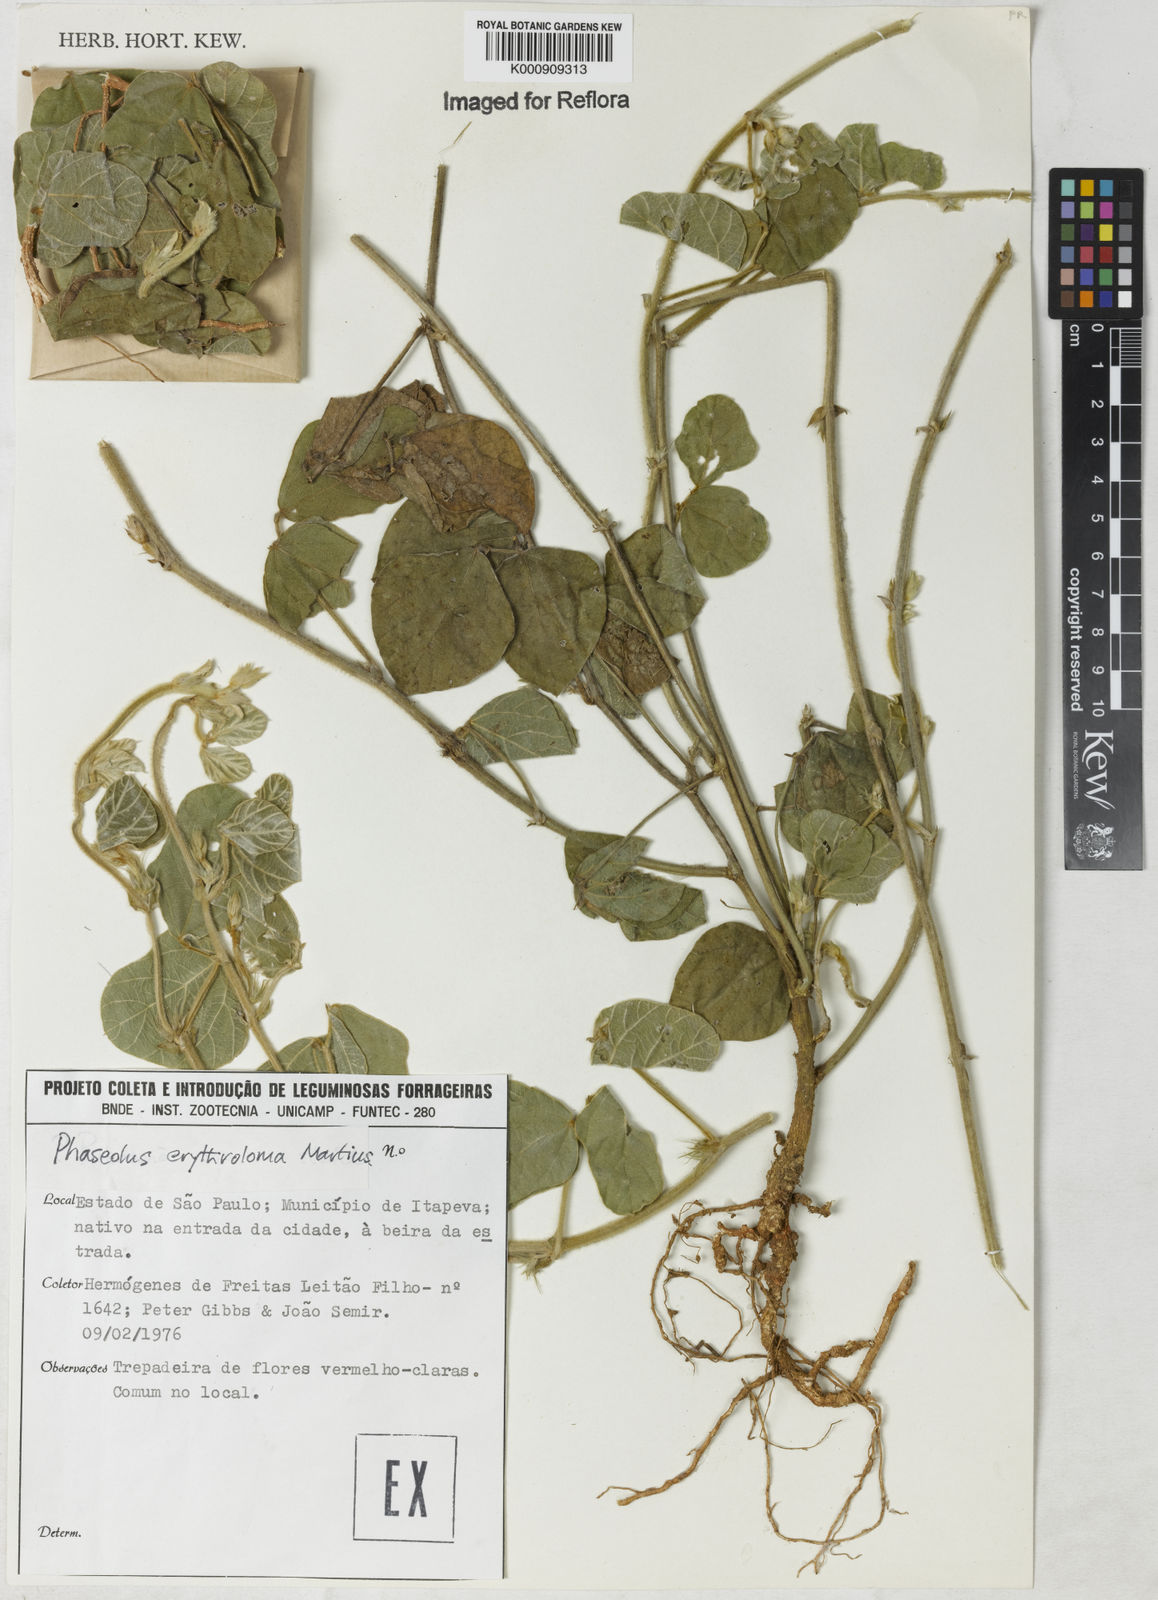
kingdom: Plantae
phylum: Tracheophyta
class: Magnoliopsida
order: Fabales
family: Fabaceae
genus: Macroptilium
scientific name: Macroptilium erythroloma
